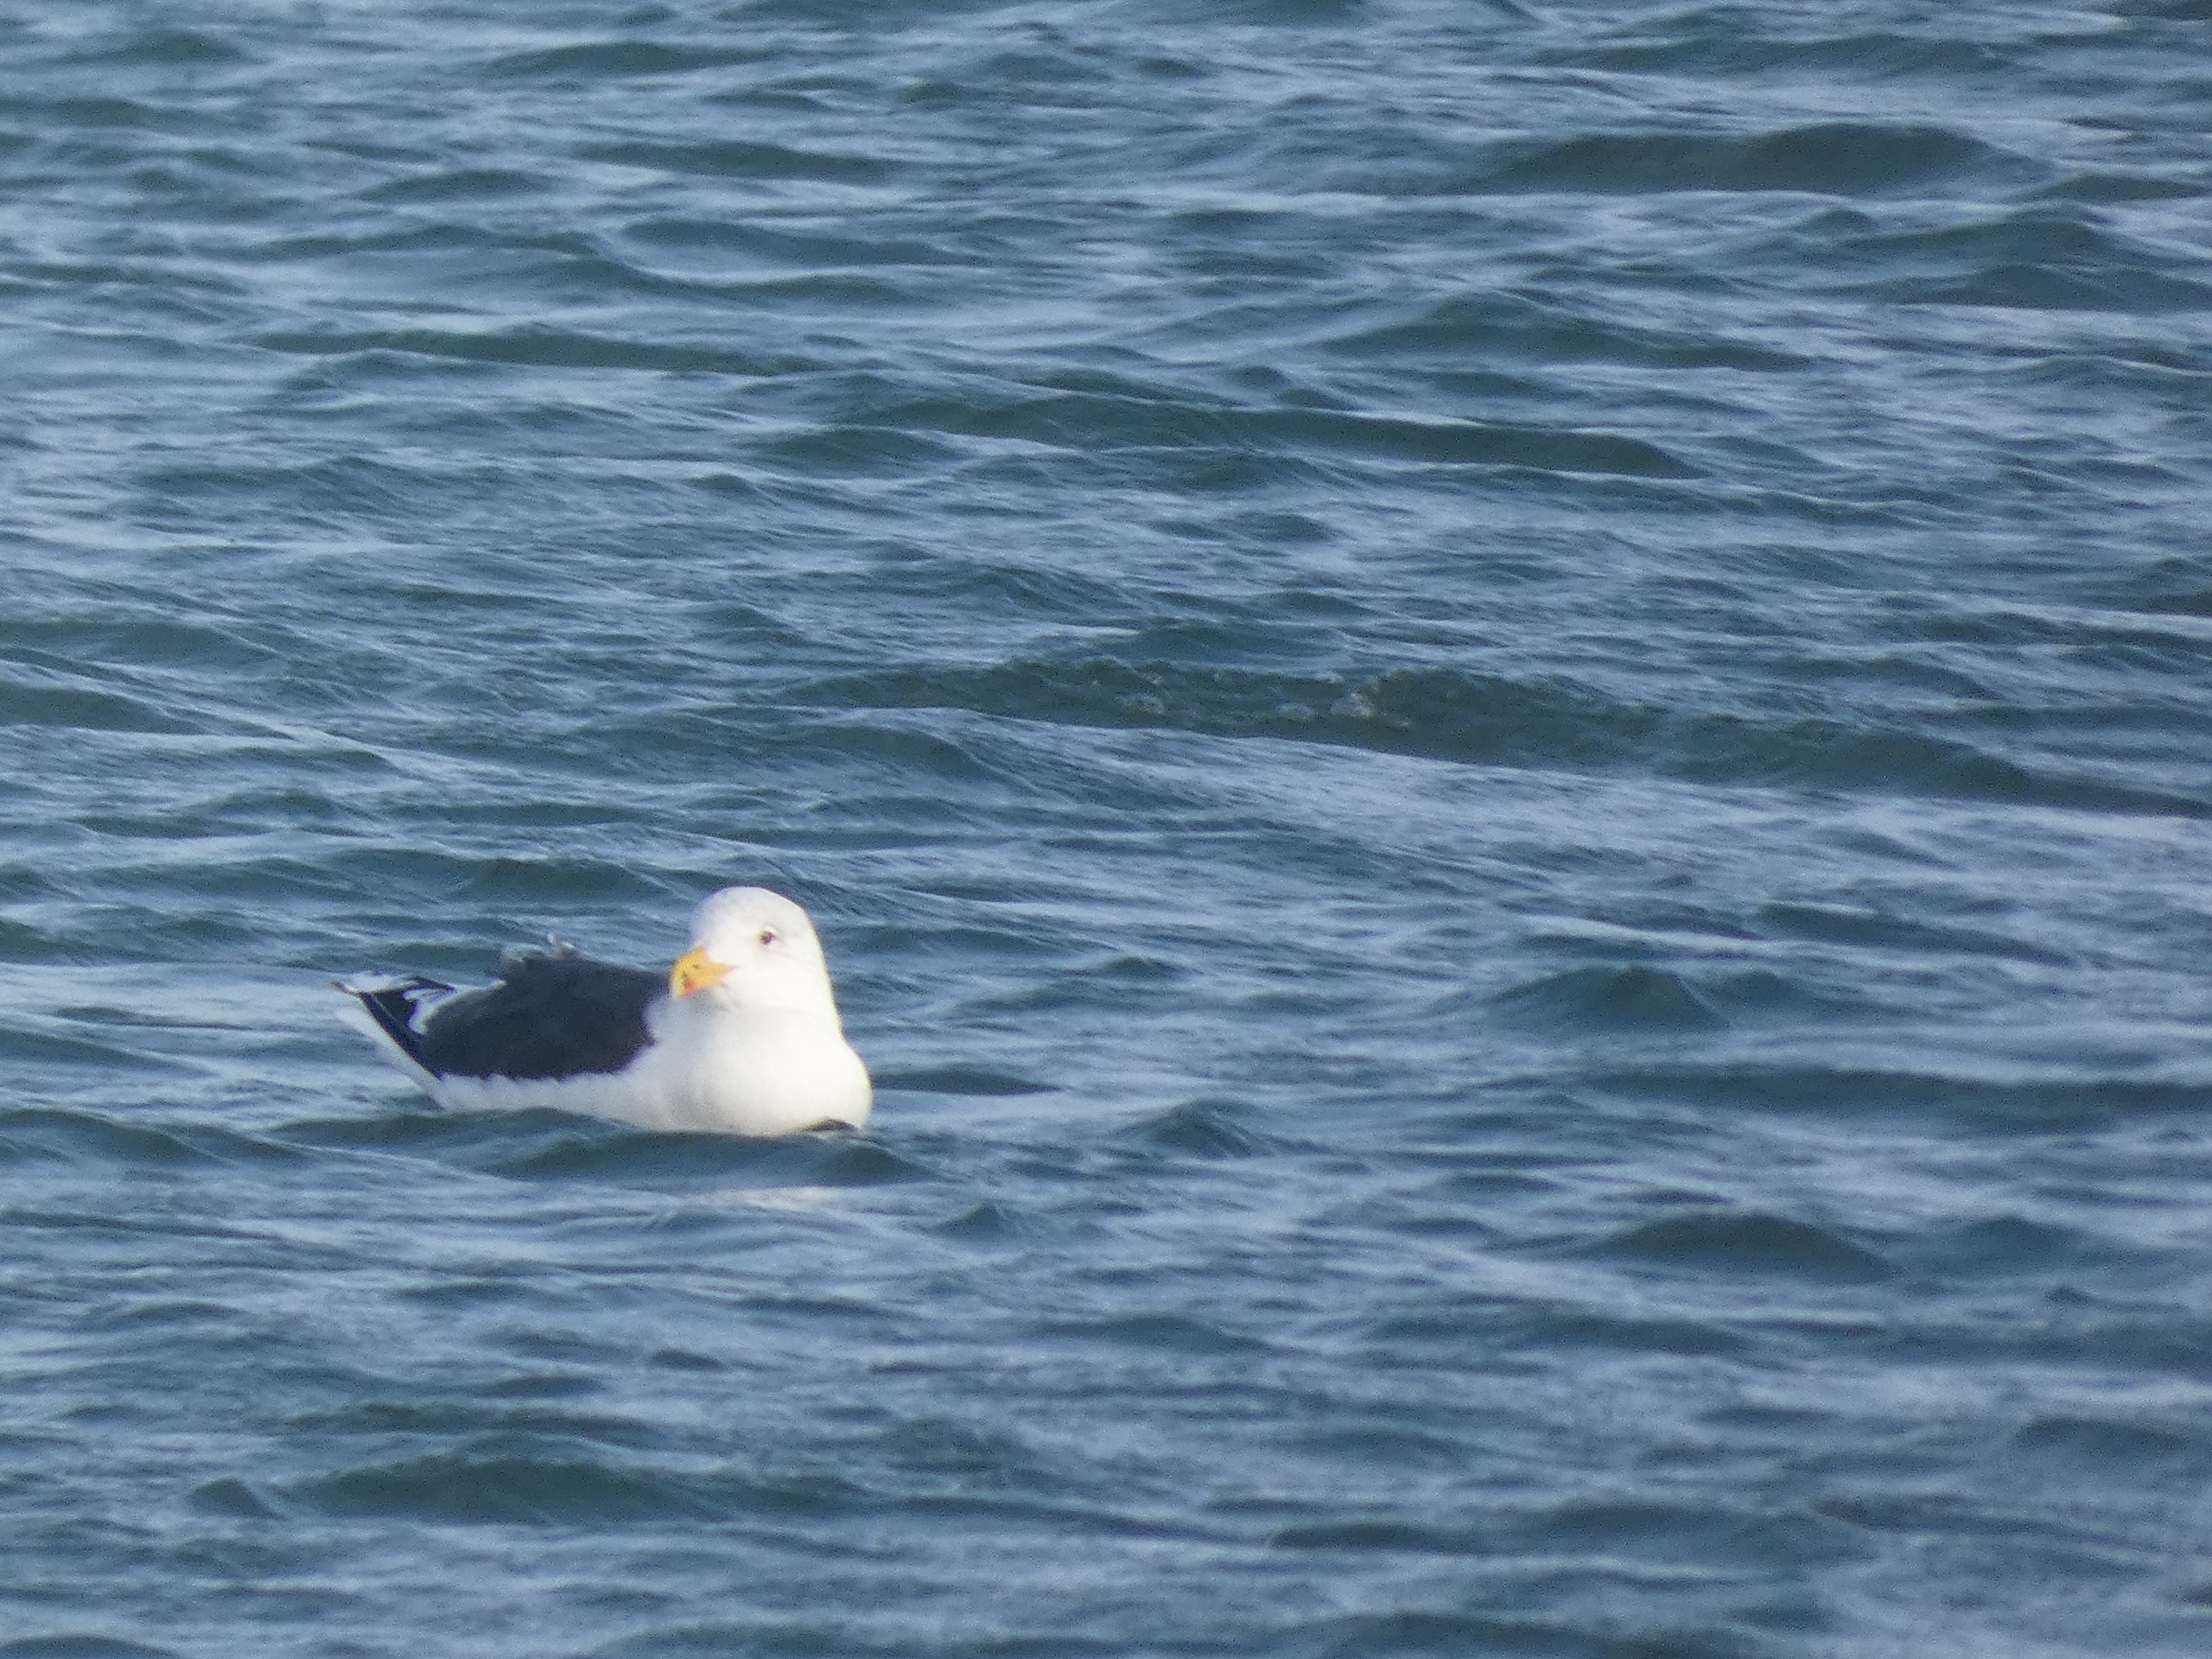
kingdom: Animalia
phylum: Chordata
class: Aves
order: Charadriiformes
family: Laridae
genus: Larus
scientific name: Larus marinus
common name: Svartbag
